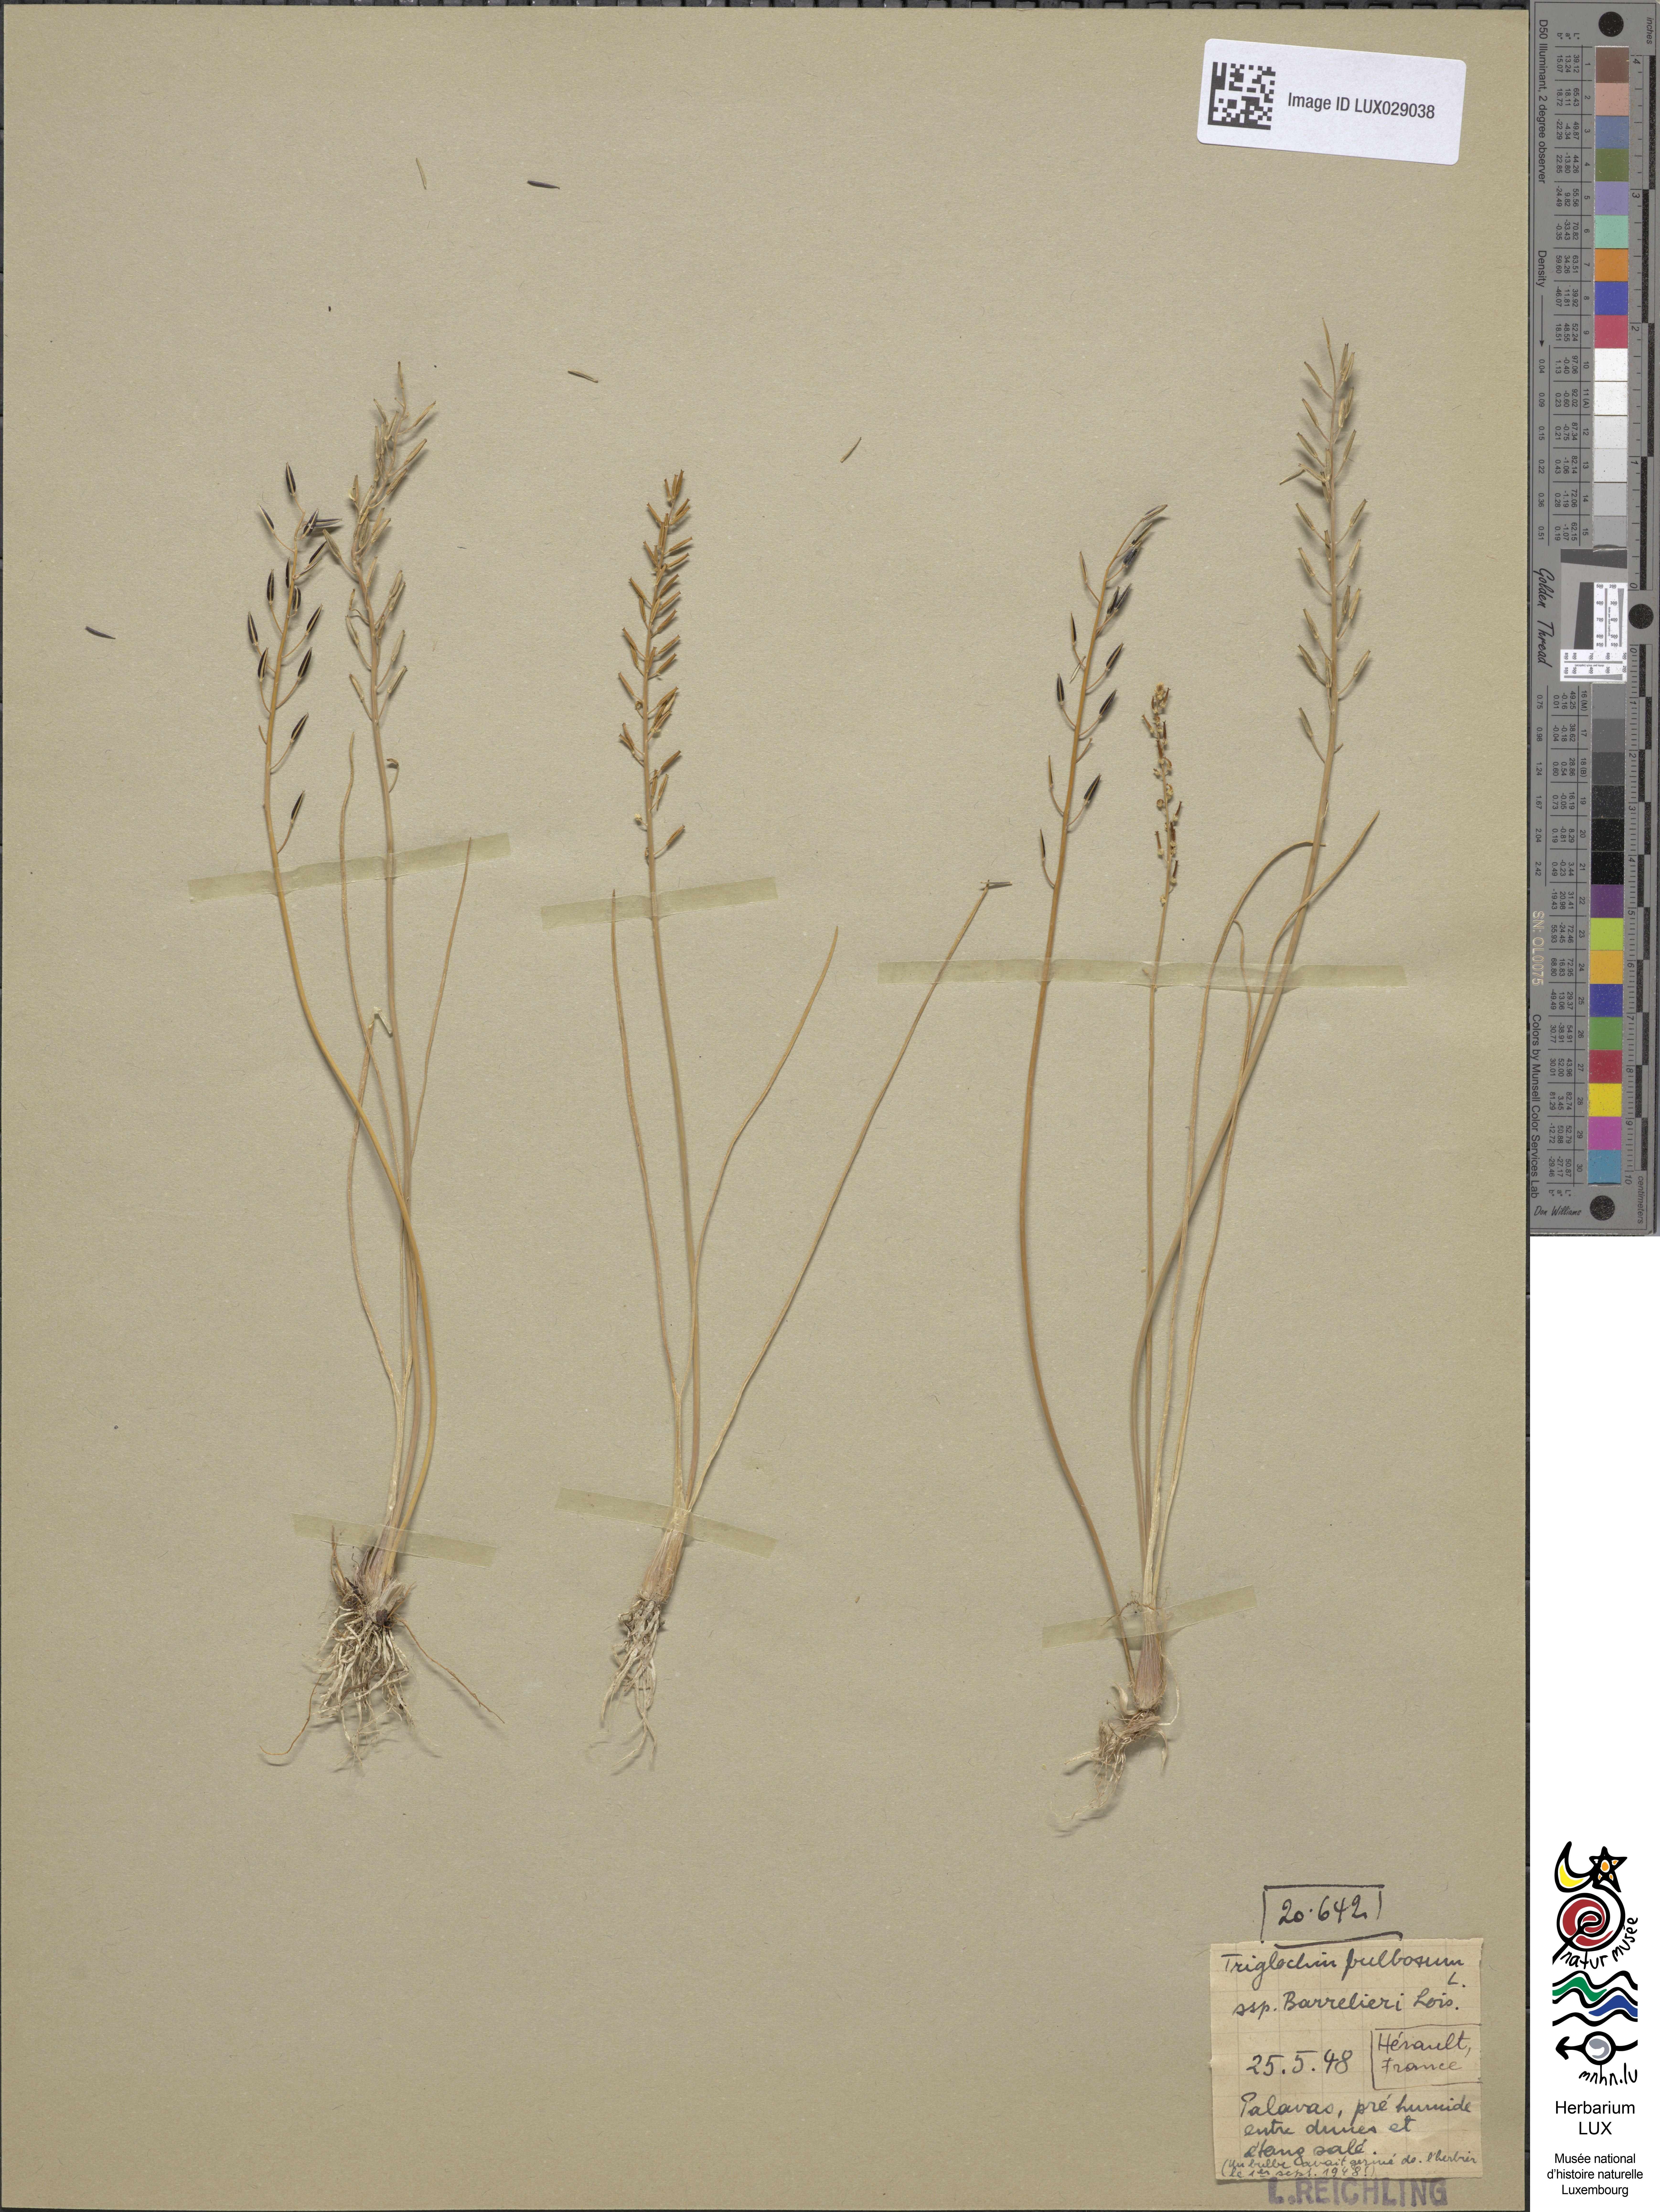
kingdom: Plantae
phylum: Tracheophyta
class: Liliopsida
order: Alismatales
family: Juncaginaceae
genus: Triglochin
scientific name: Triglochin barrelieri
